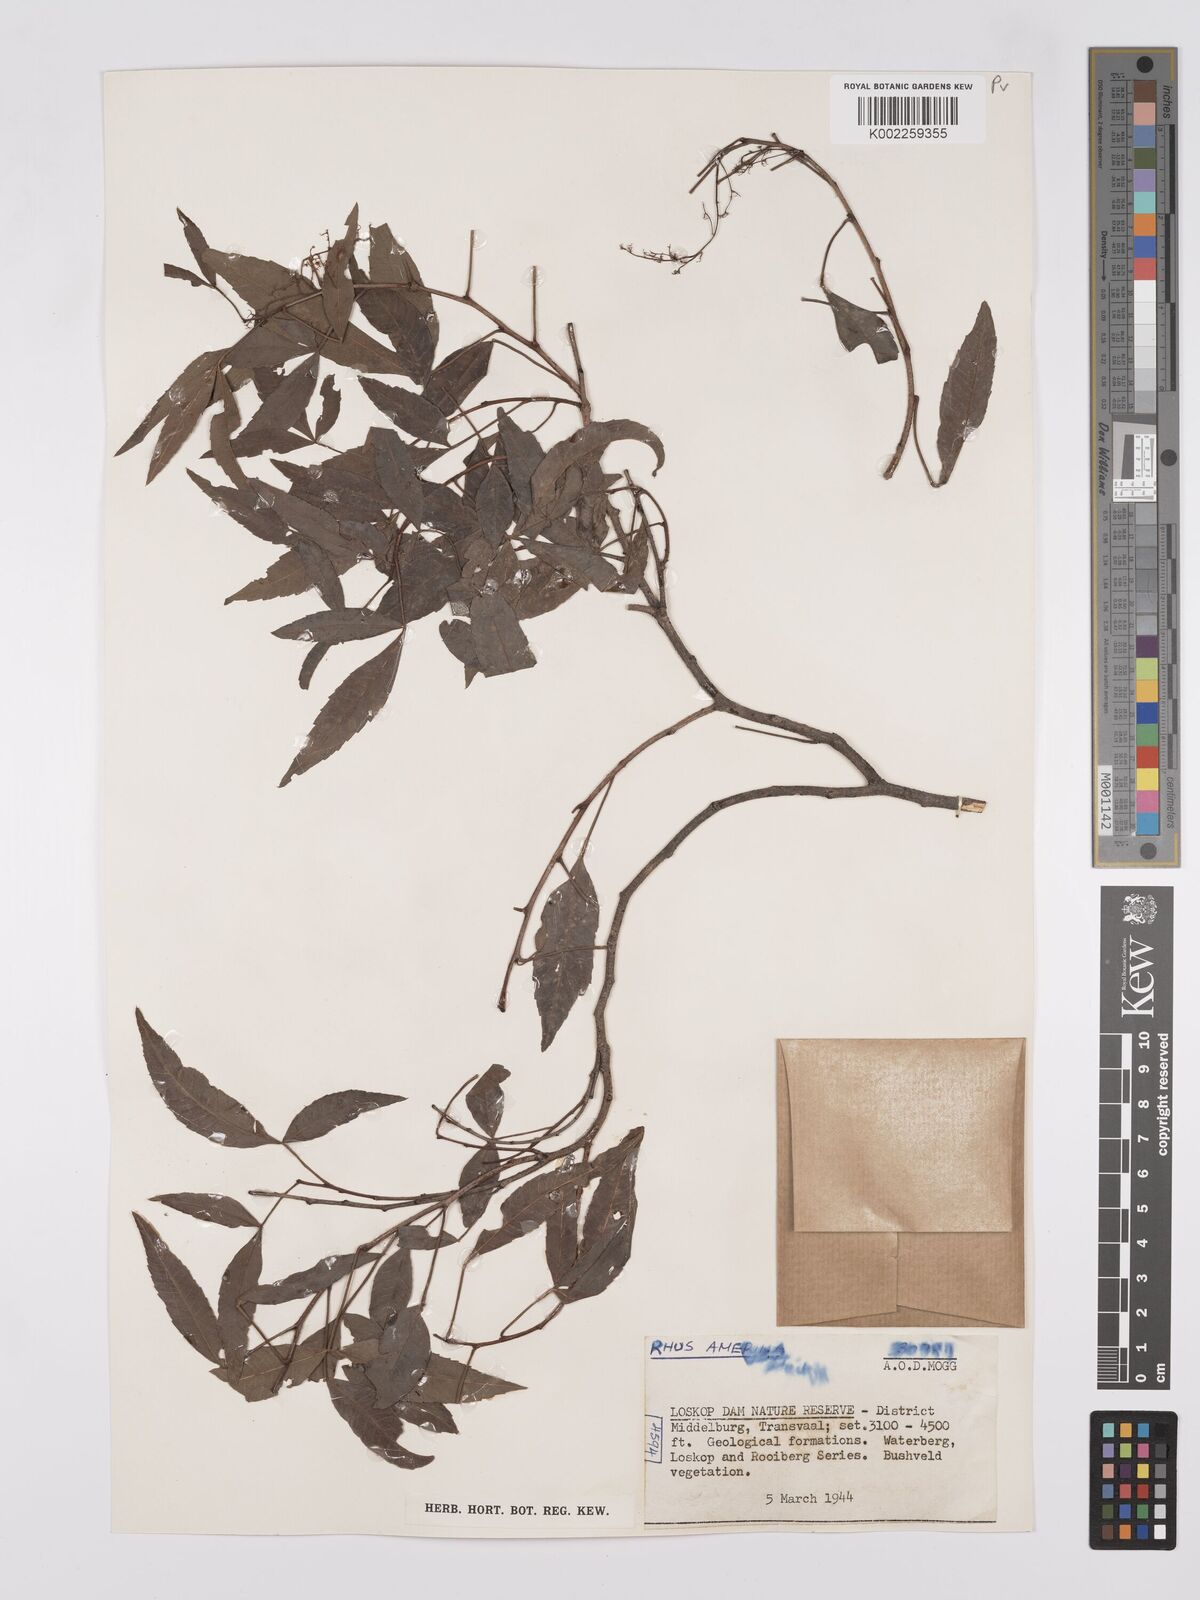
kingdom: Plantae
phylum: Tracheophyta
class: Magnoliopsida
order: Sapindales
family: Anacardiaceae
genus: Searsia
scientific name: Searsia leptodictya
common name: Mountain karee
